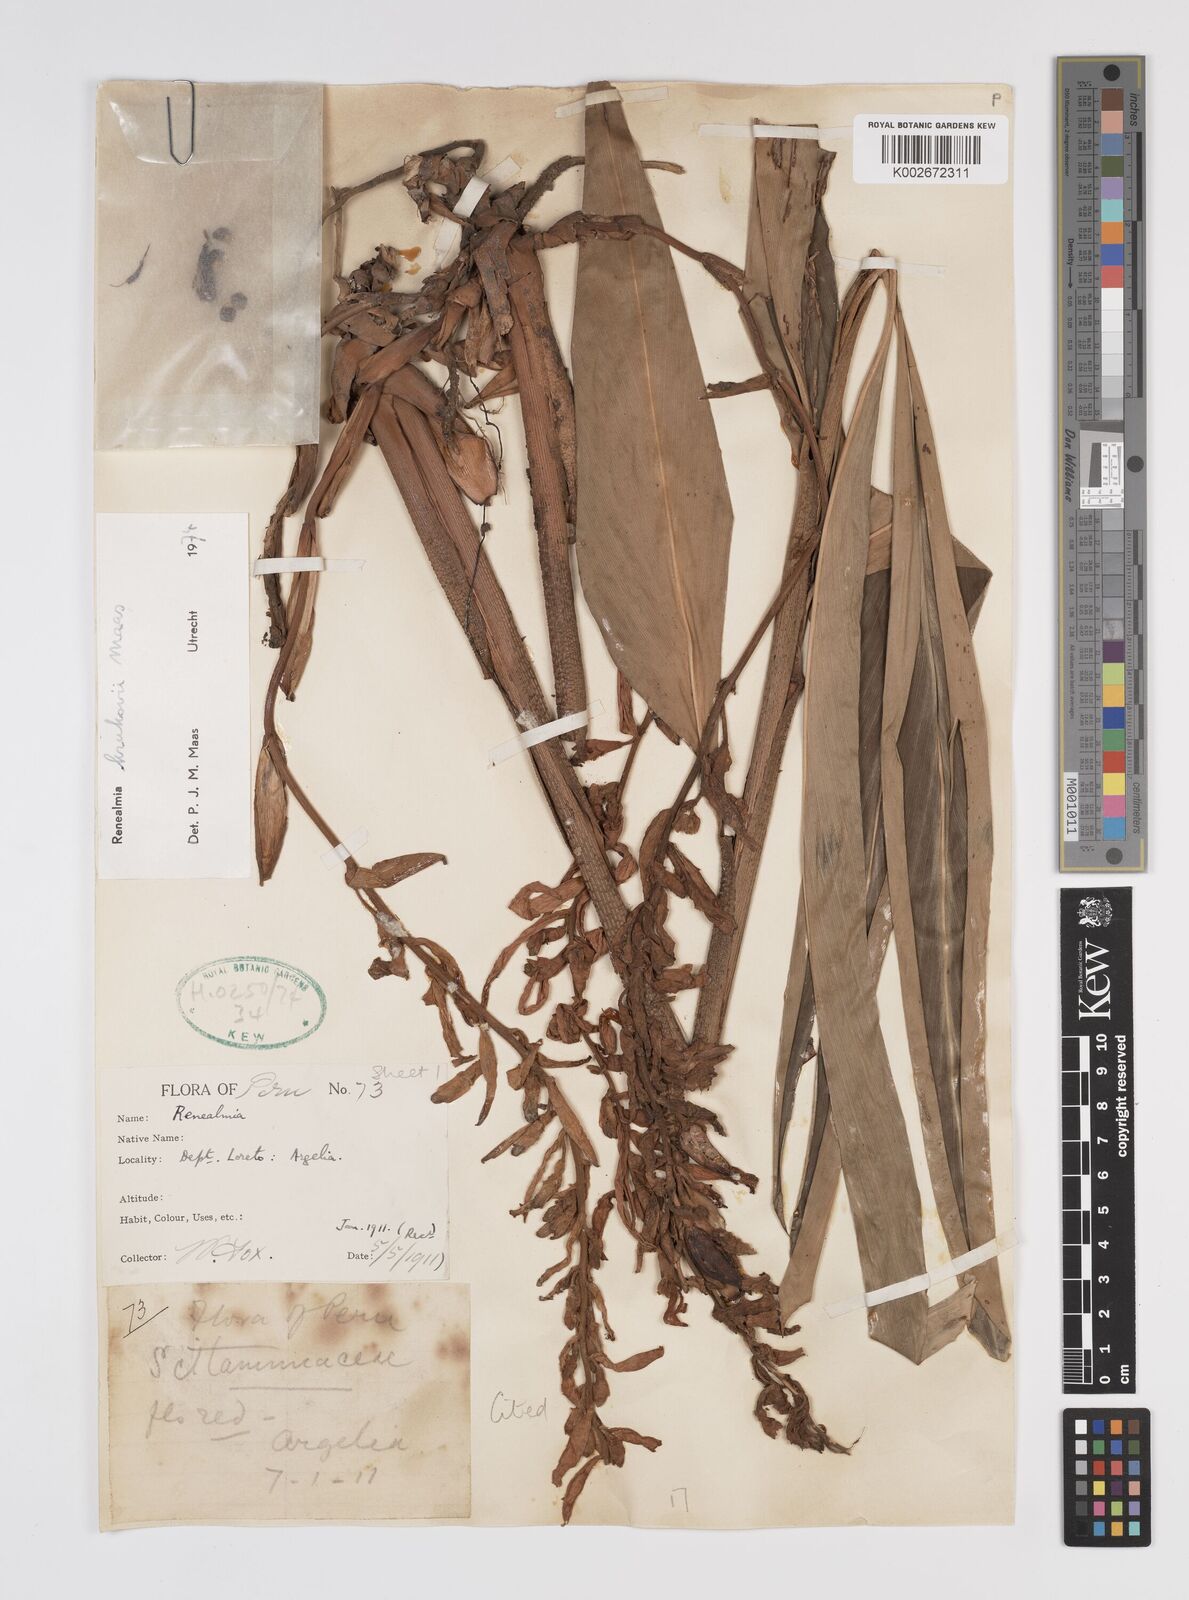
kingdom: Plantae
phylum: Tracheophyta
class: Liliopsida
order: Zingiberales
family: Zingiberaceae
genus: Renealmia
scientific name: Renealmia krukovii
